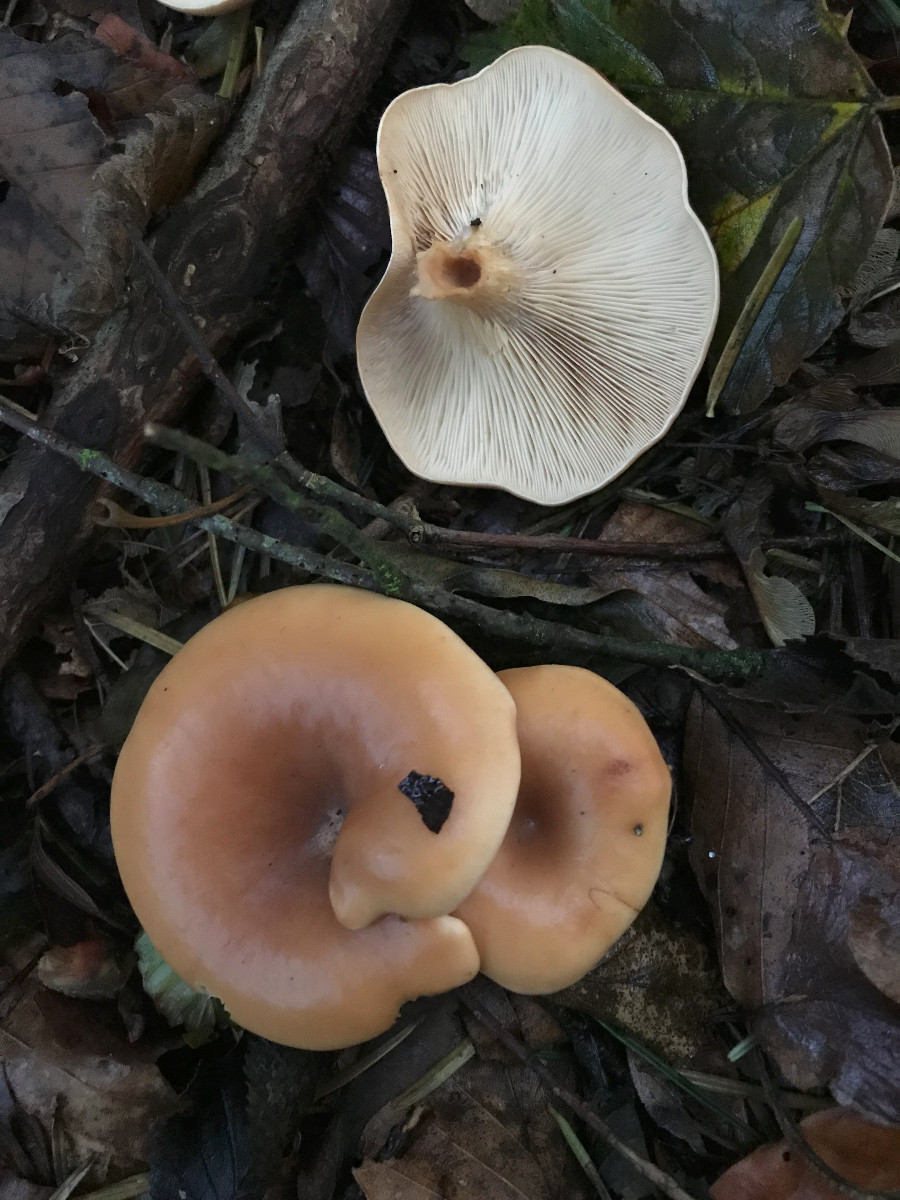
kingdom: Fungi
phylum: Basidiomycota
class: Agaricomycetes
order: Agaricales
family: Tricholomataceae
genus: Paralepista
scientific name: Paralepista flaccida
